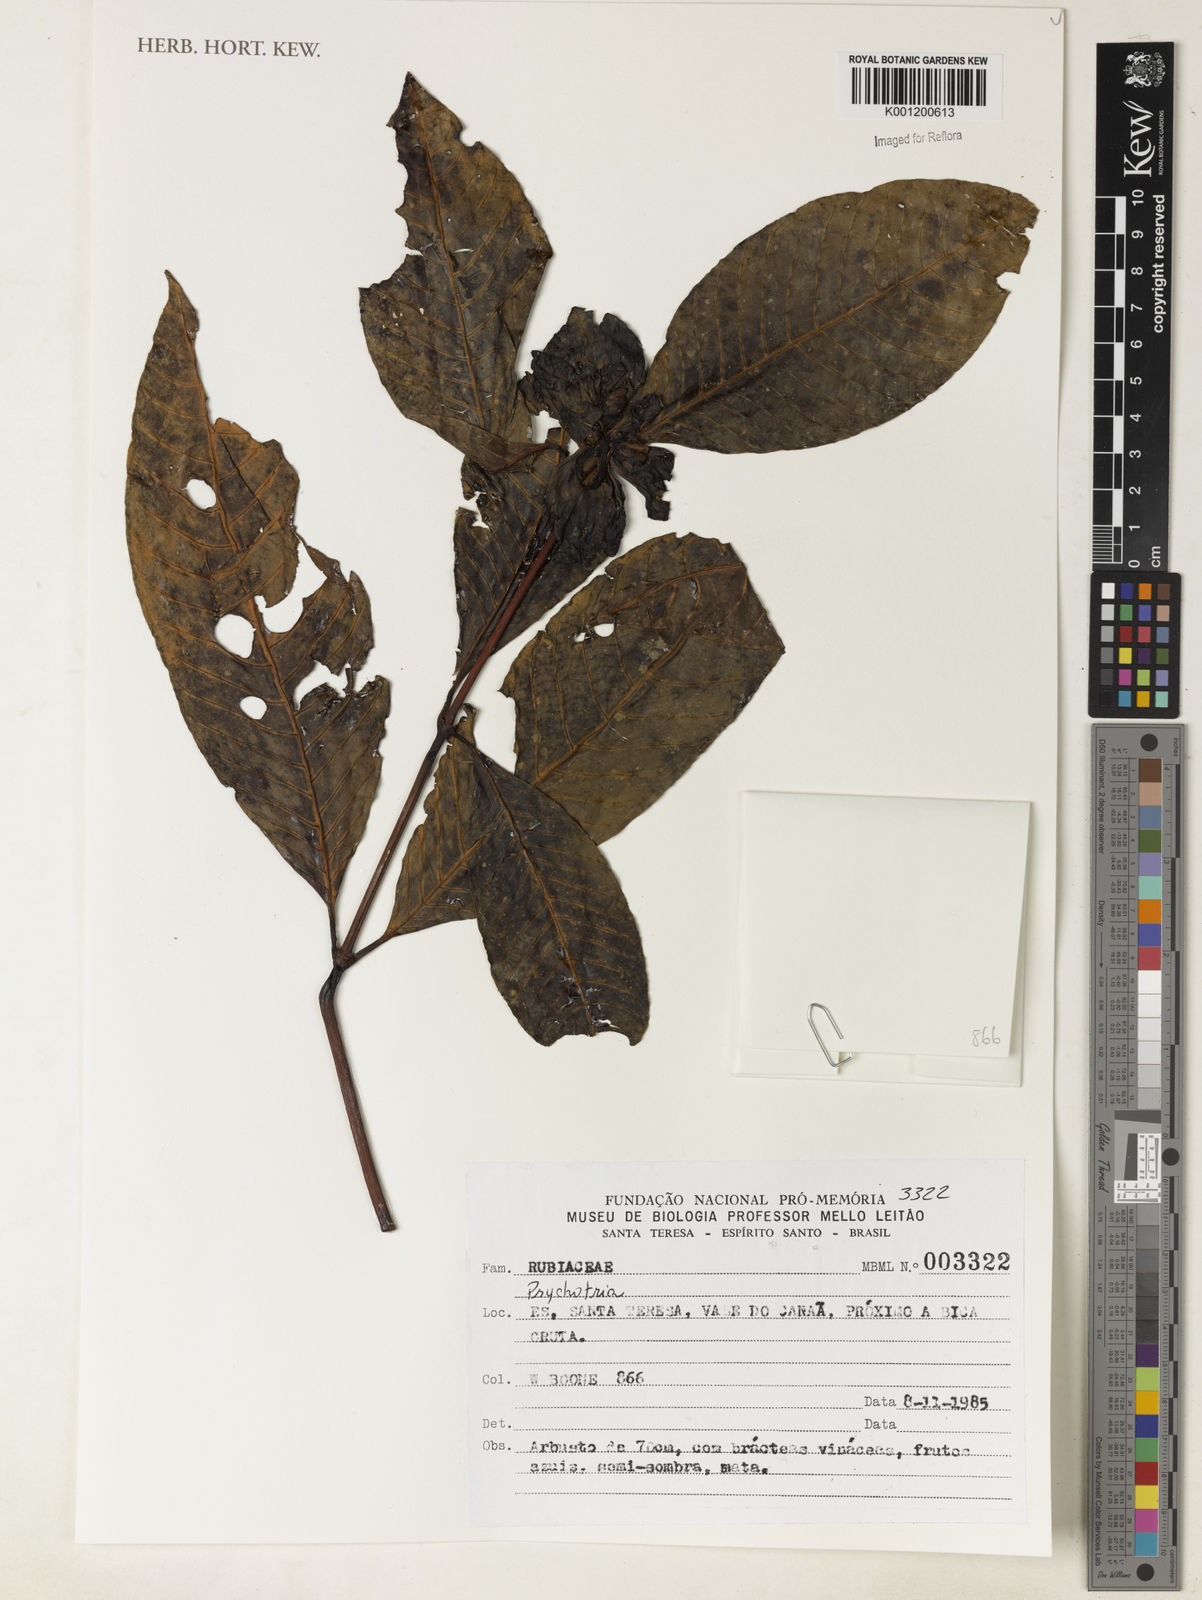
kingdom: Plantae
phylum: Tracheophyta
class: Magnoliopsida
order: Gentianales
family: Rubiaceae
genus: Psychotria
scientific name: Psychotria
